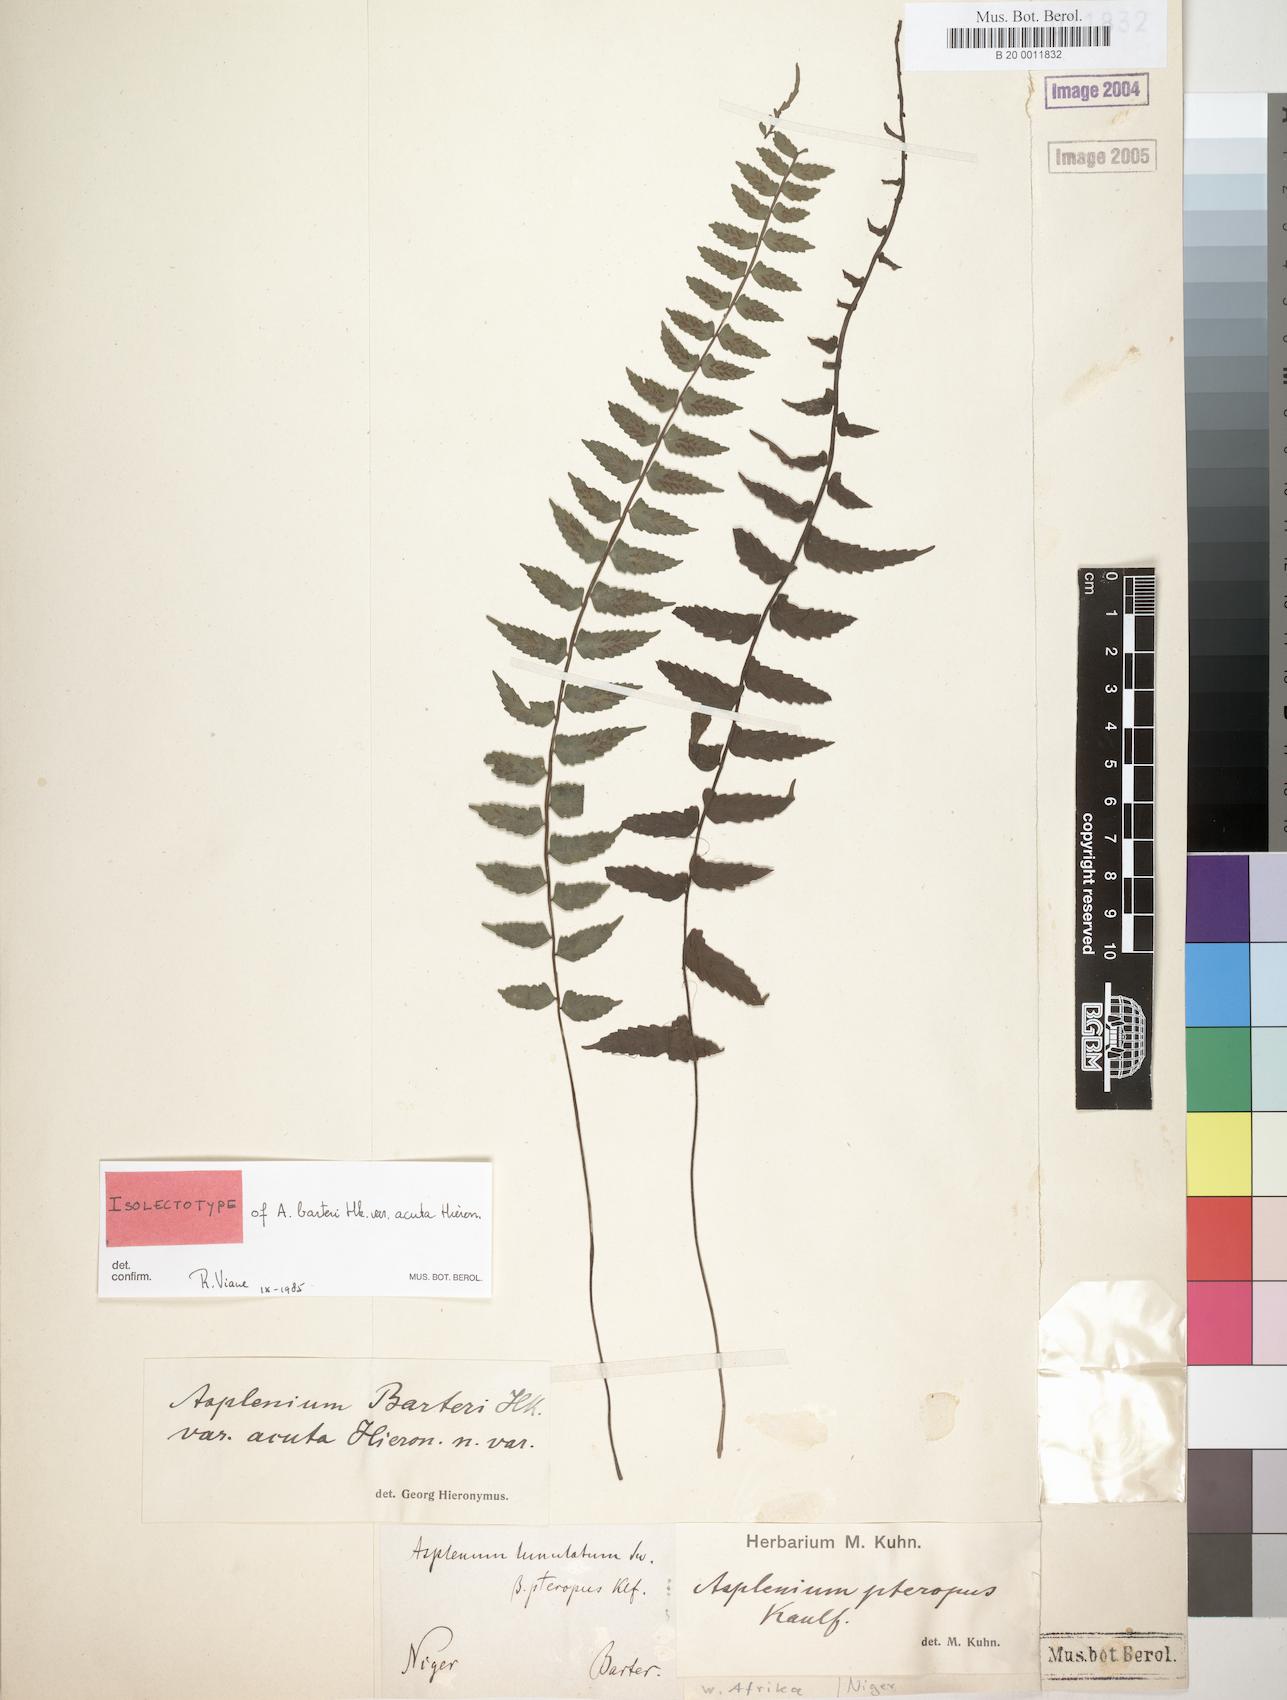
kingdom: Plantae
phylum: Tracheophyta
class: Polypodiopsida
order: Polypodiales
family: Aspleniaceae
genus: Asplenium
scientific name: Asplenium barteri
